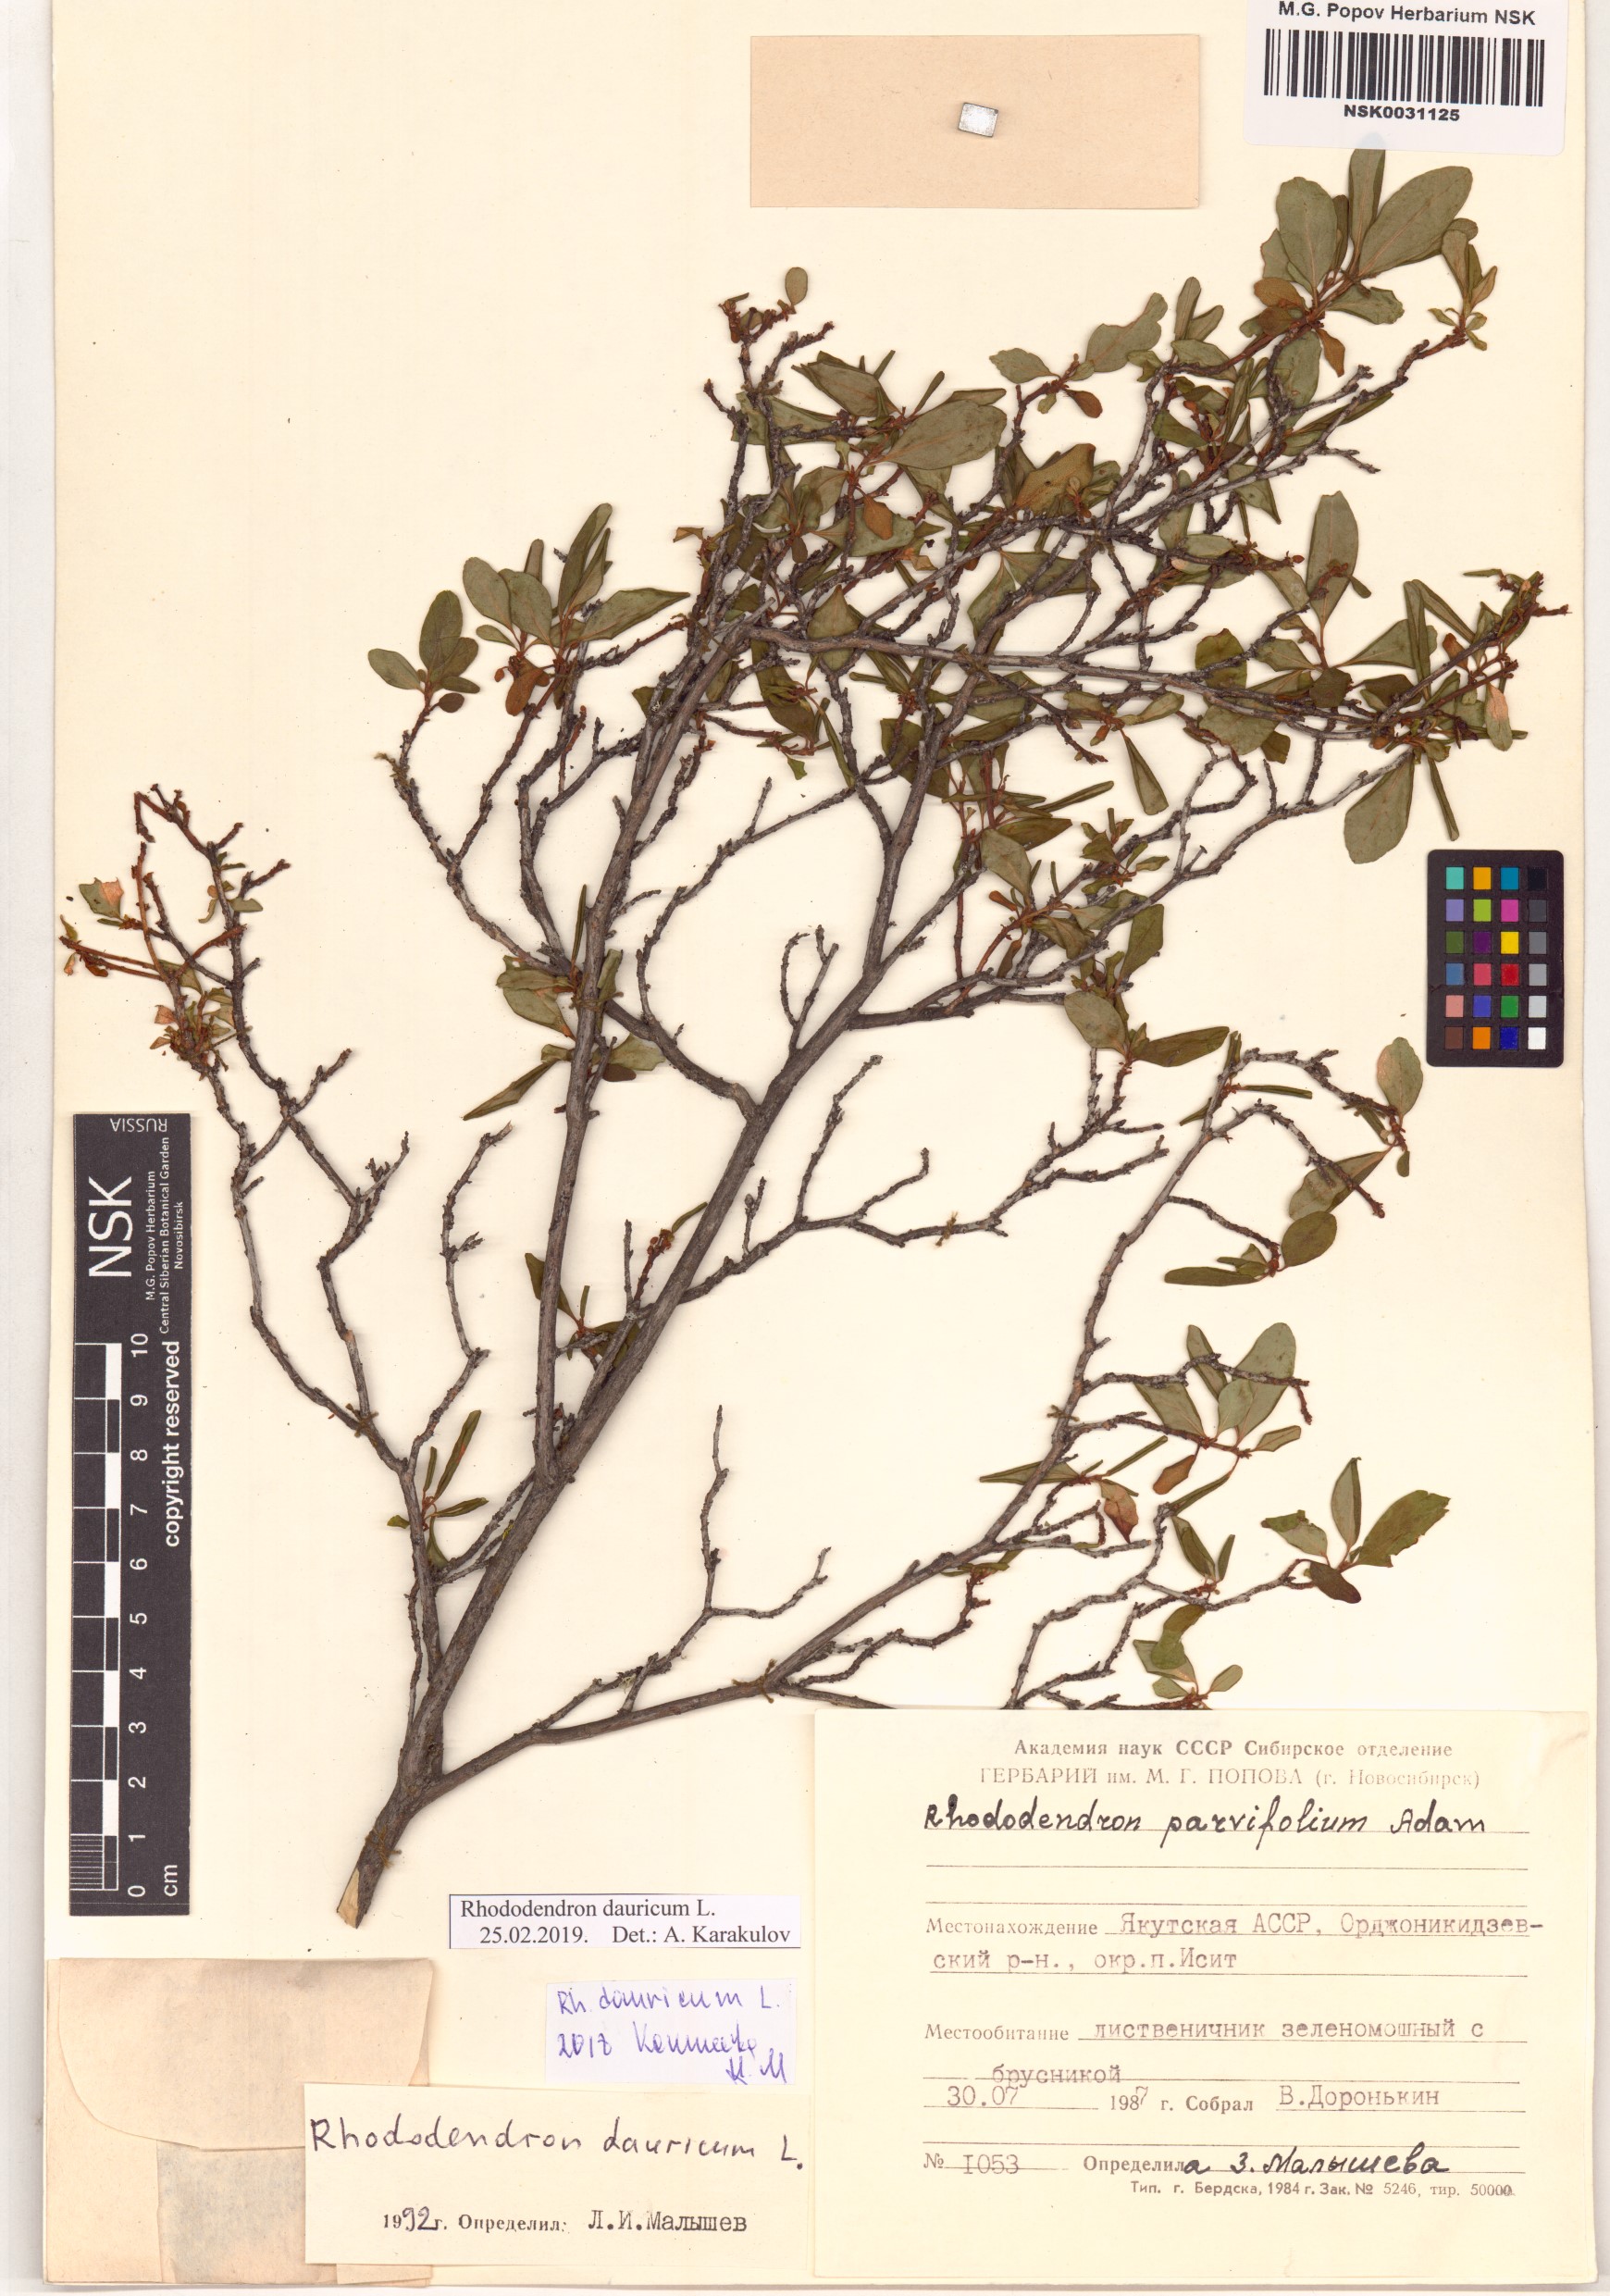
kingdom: Plantae
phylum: Tracheophyta
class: Magnoliopsida
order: Ericales
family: Ericaceae
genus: Rhododendron
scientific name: Rhododendron dauricum
